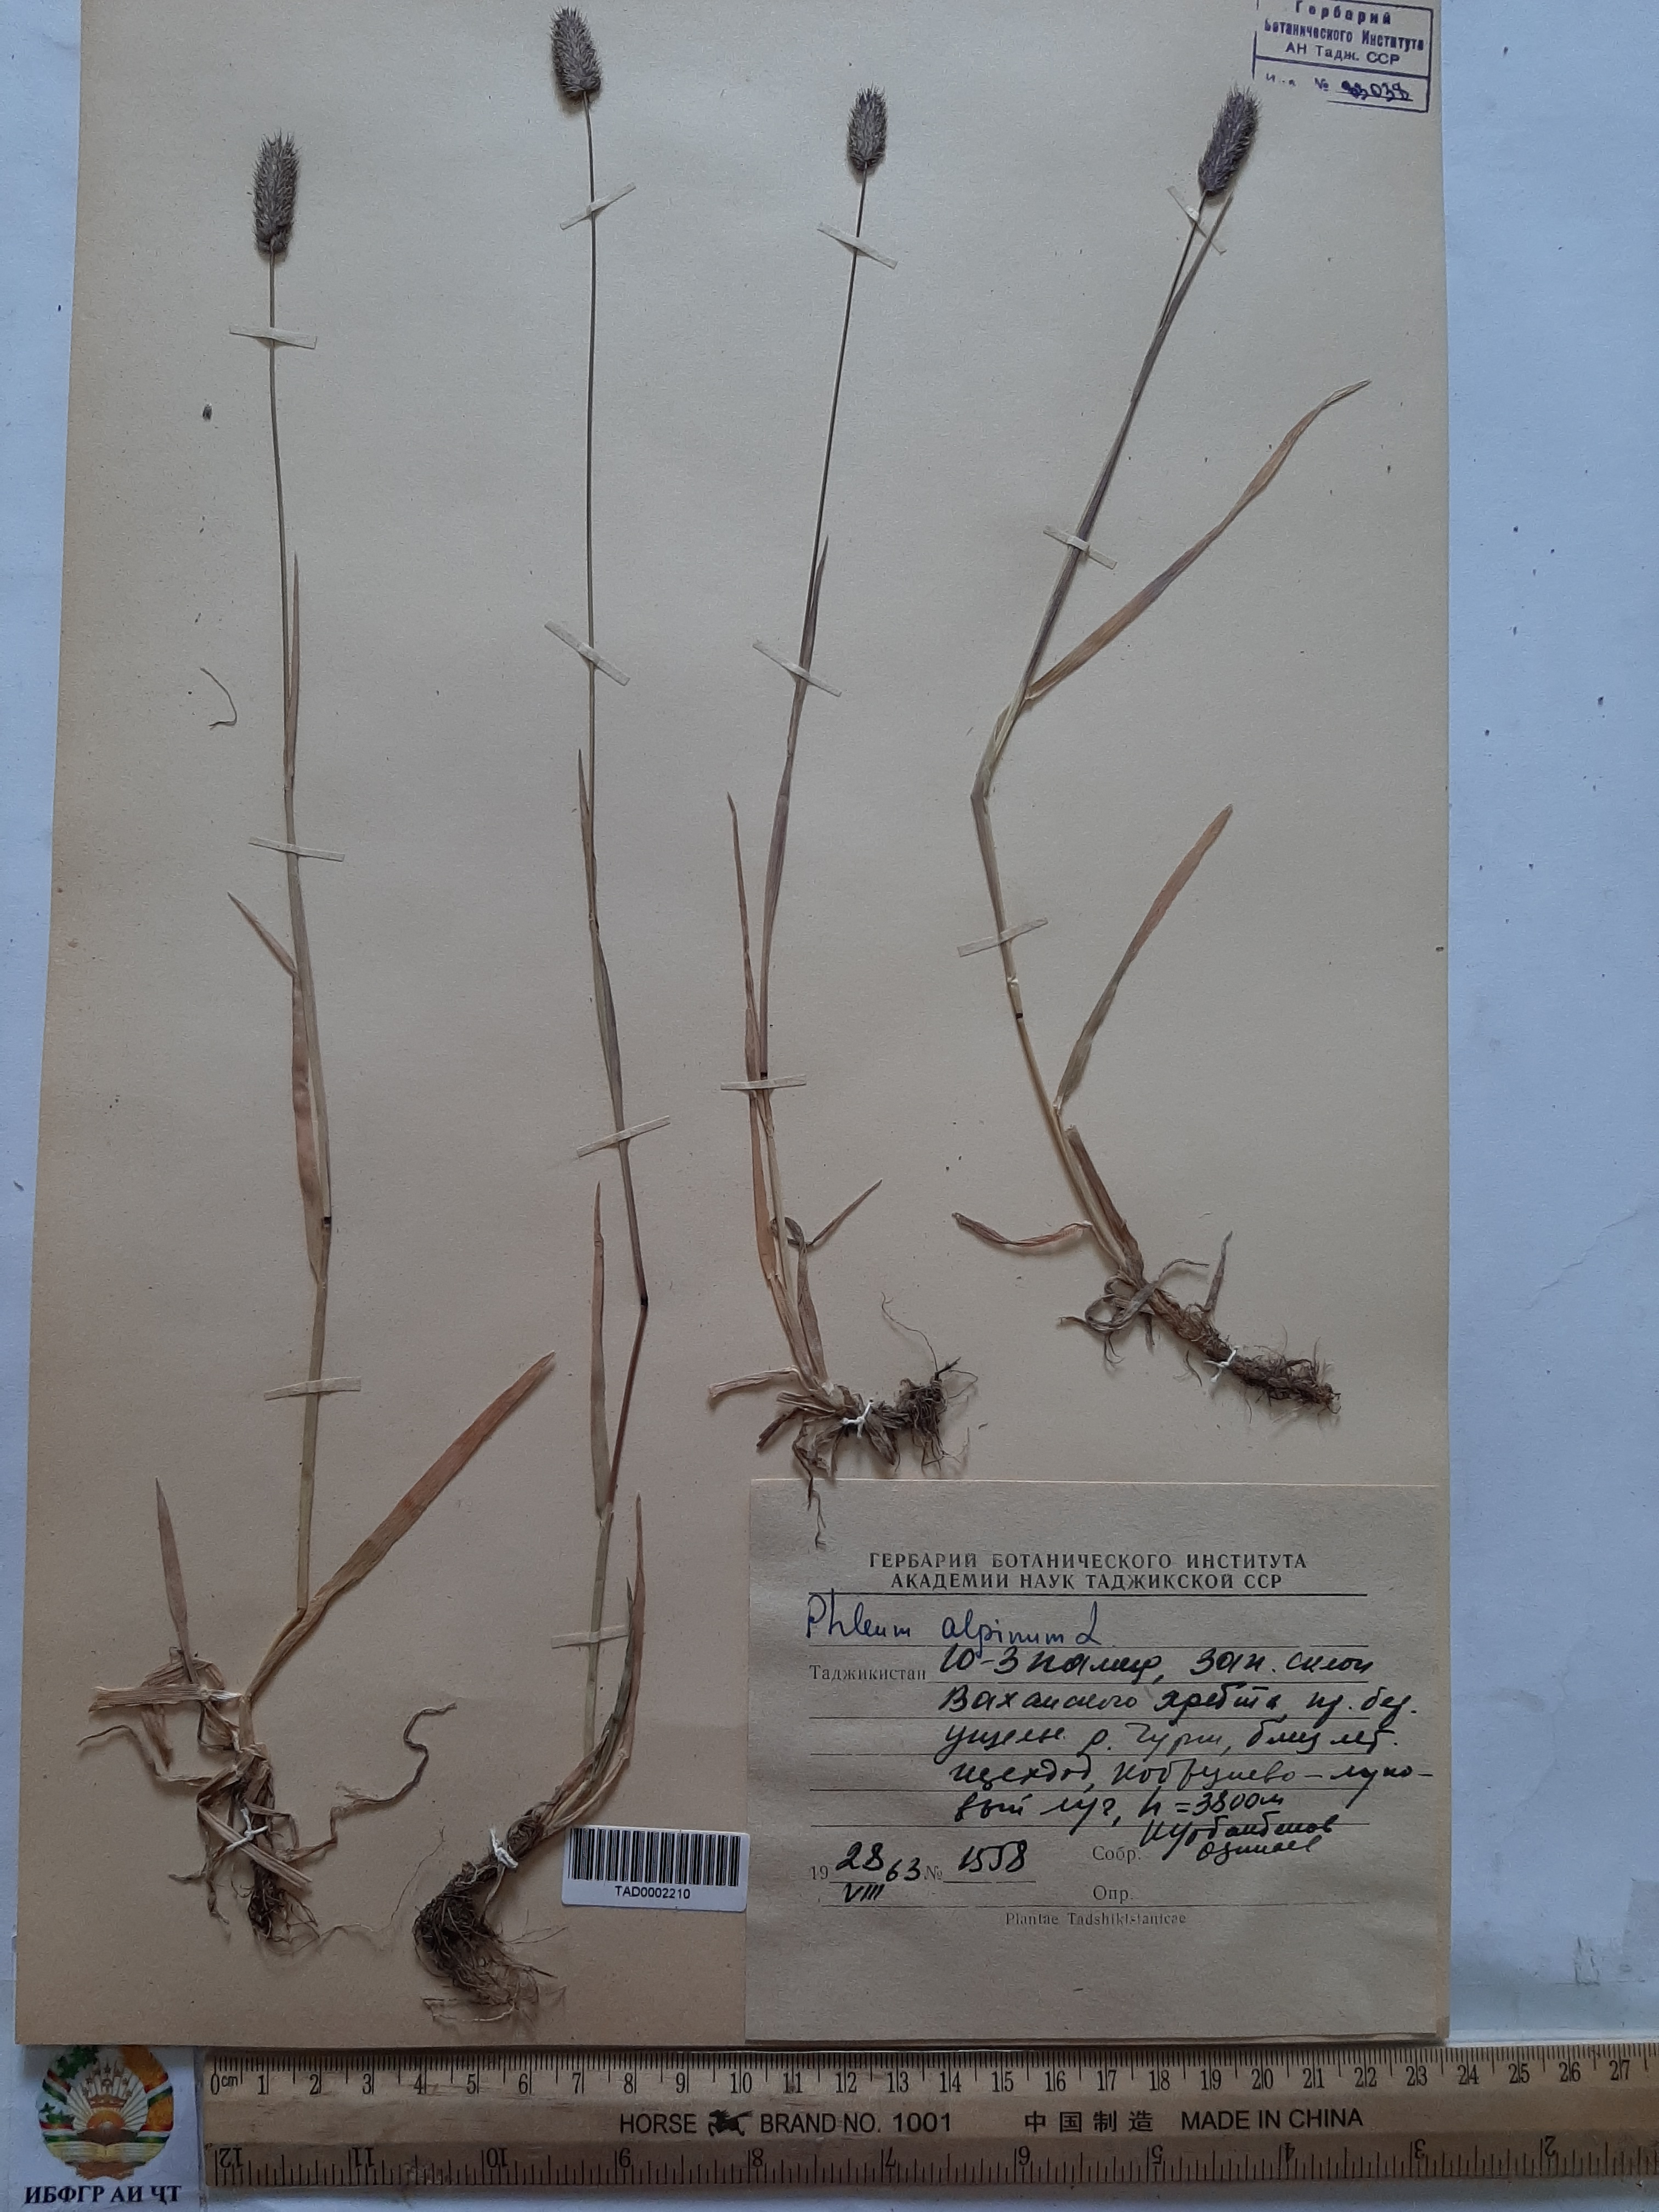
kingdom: Plantae
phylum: Tracheophyta
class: Liliopsida
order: Poales
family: Poaceae
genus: Phleum
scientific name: Phleum alpinum
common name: Alpine cat's-tail
